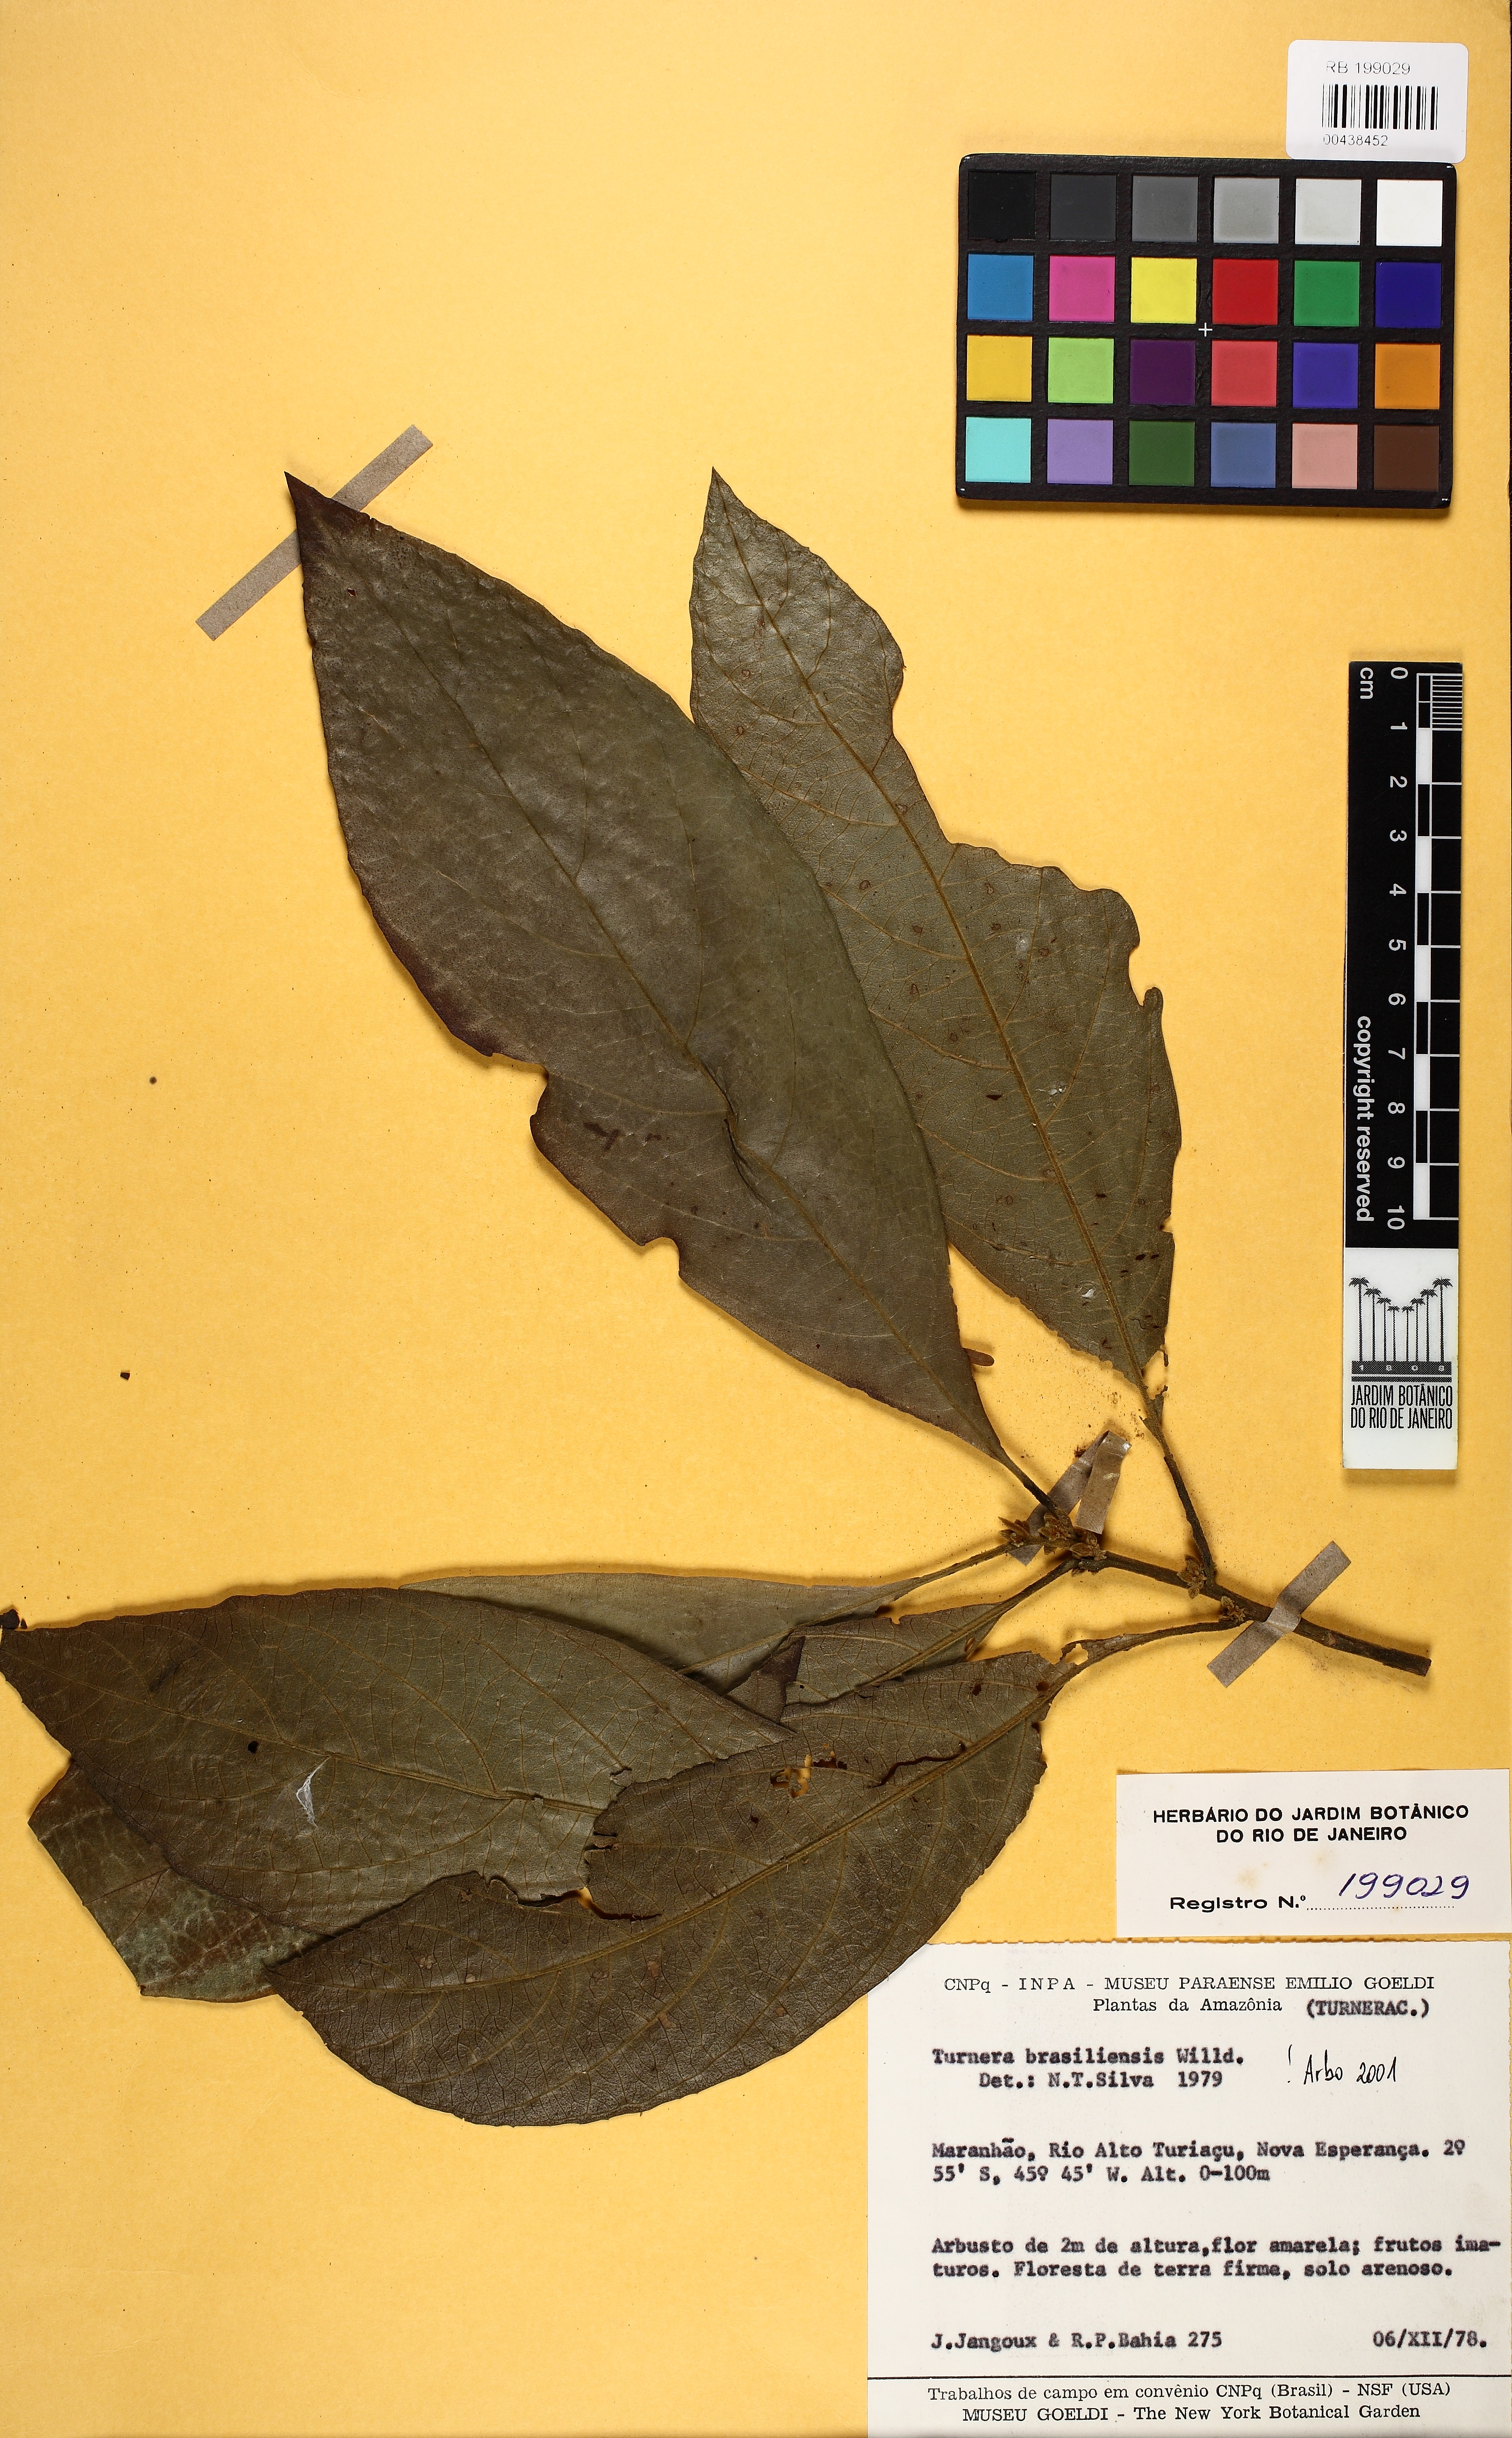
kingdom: Plantae
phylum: Tracheophyta
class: Magnoliopsida
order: Malpighiales
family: Turneraceae
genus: Turnera
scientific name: Turnera brasiliensis
